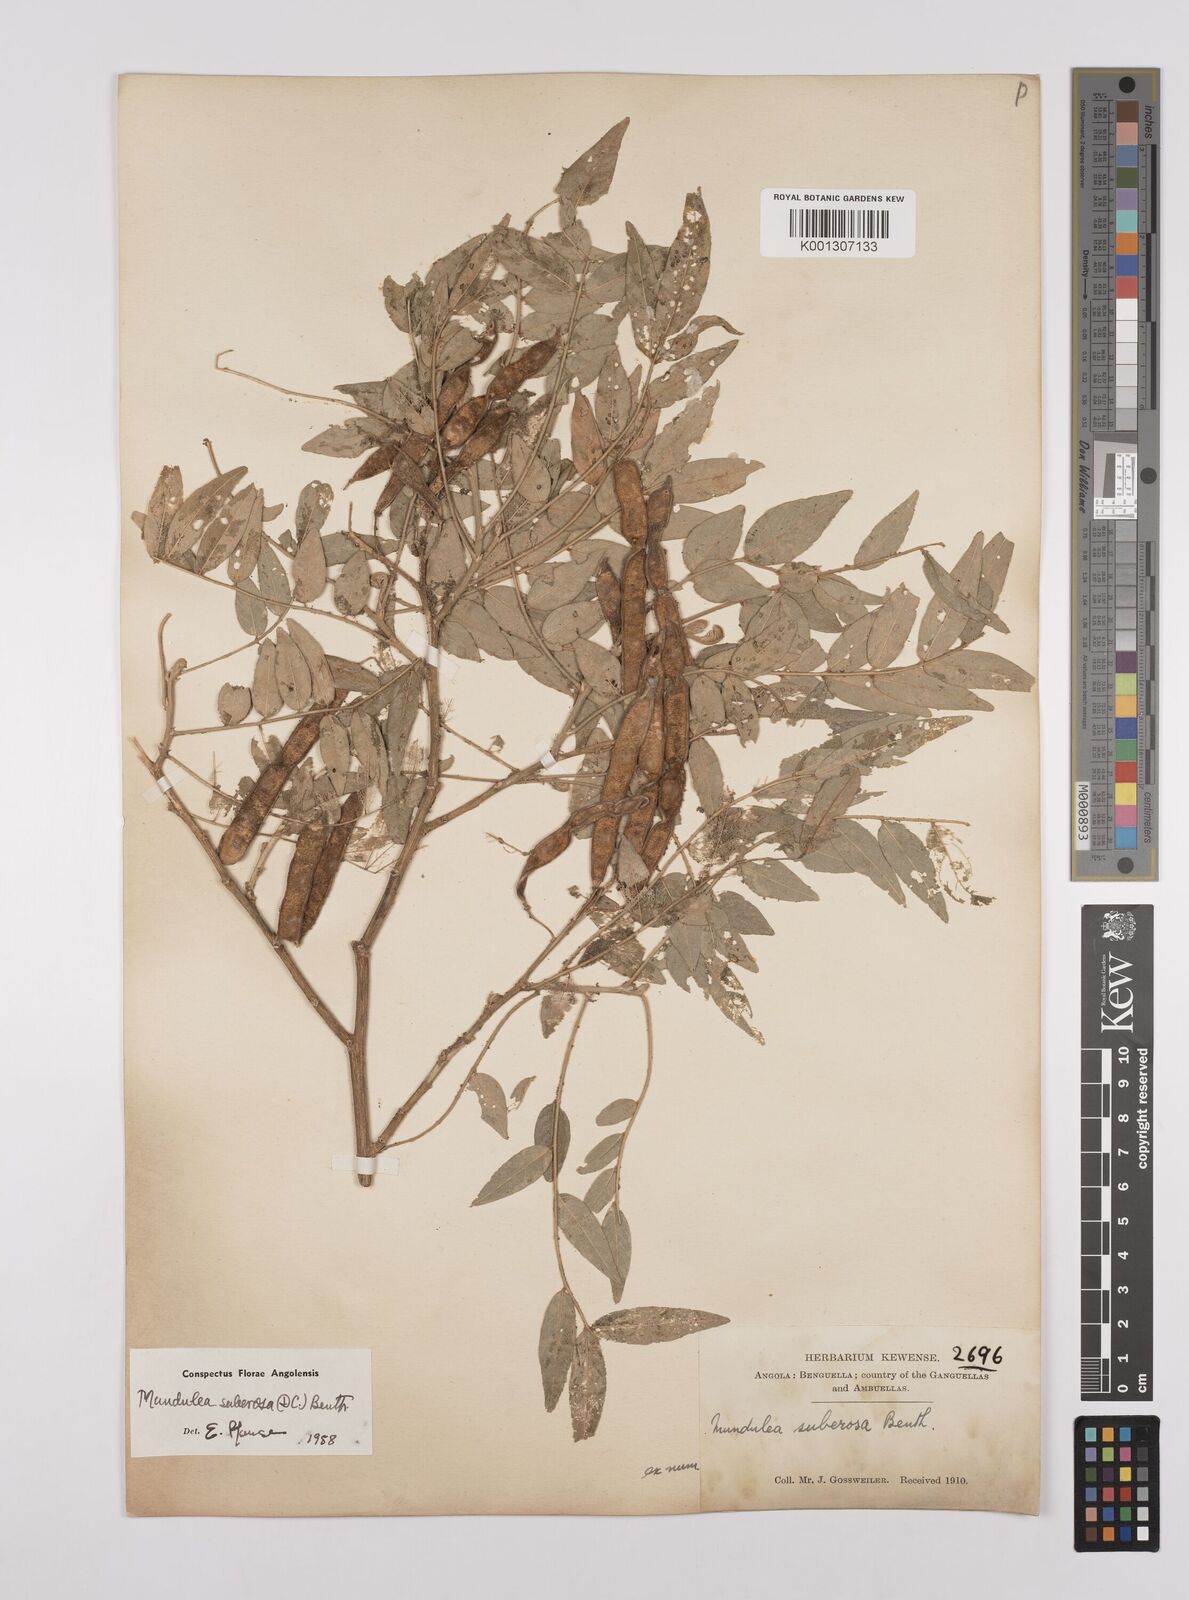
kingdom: Plantae
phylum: Tracheophyta
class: Magnoliopsida
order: Fabales
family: Fabaceae
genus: Mundulea
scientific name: Mundulea sericea
